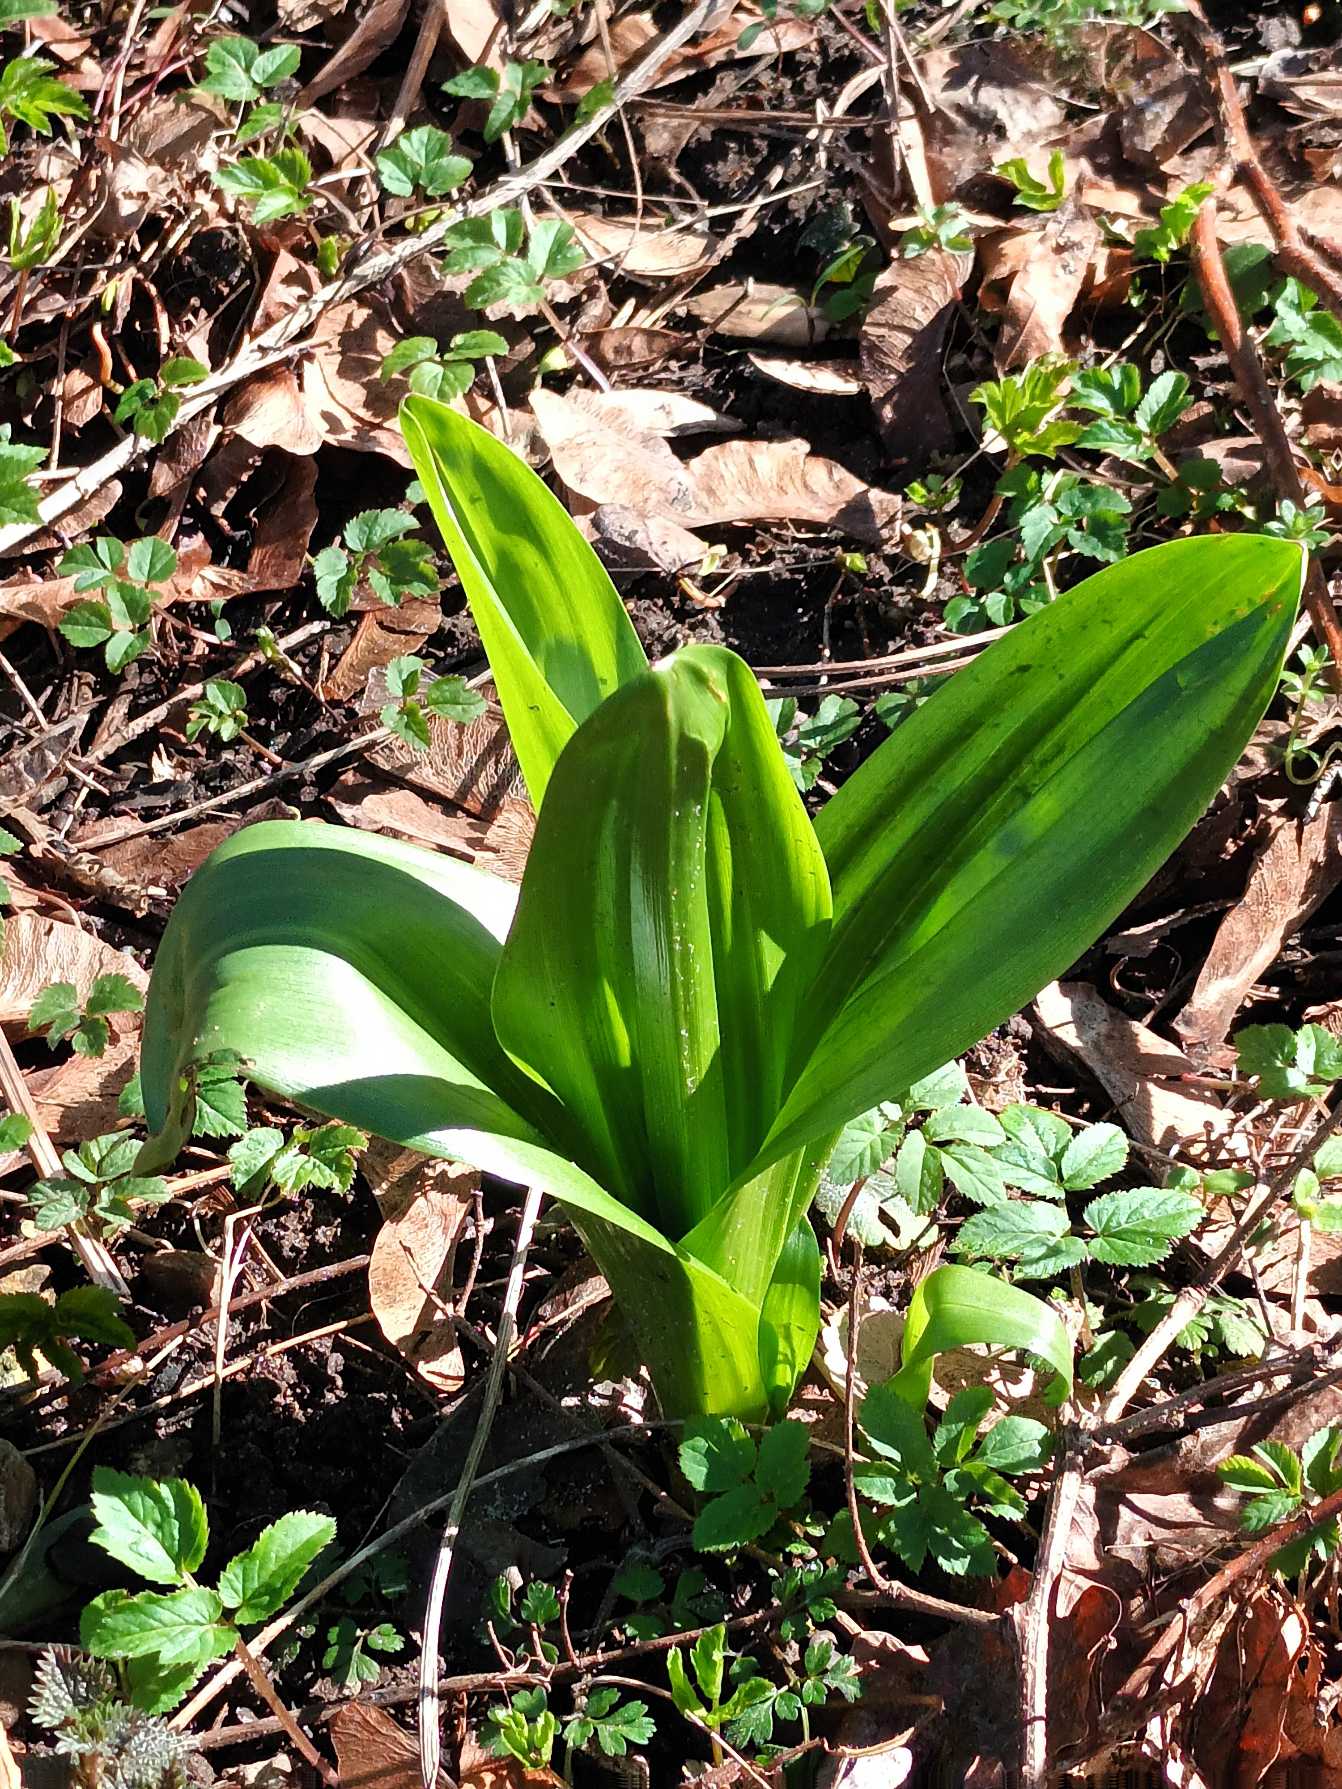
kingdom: Plantae
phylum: Tracheophyta
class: Liliopsida
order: Liliales
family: Colchicaceae
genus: Colchicum
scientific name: Colchicum autumnale
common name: Høst-tidløs
